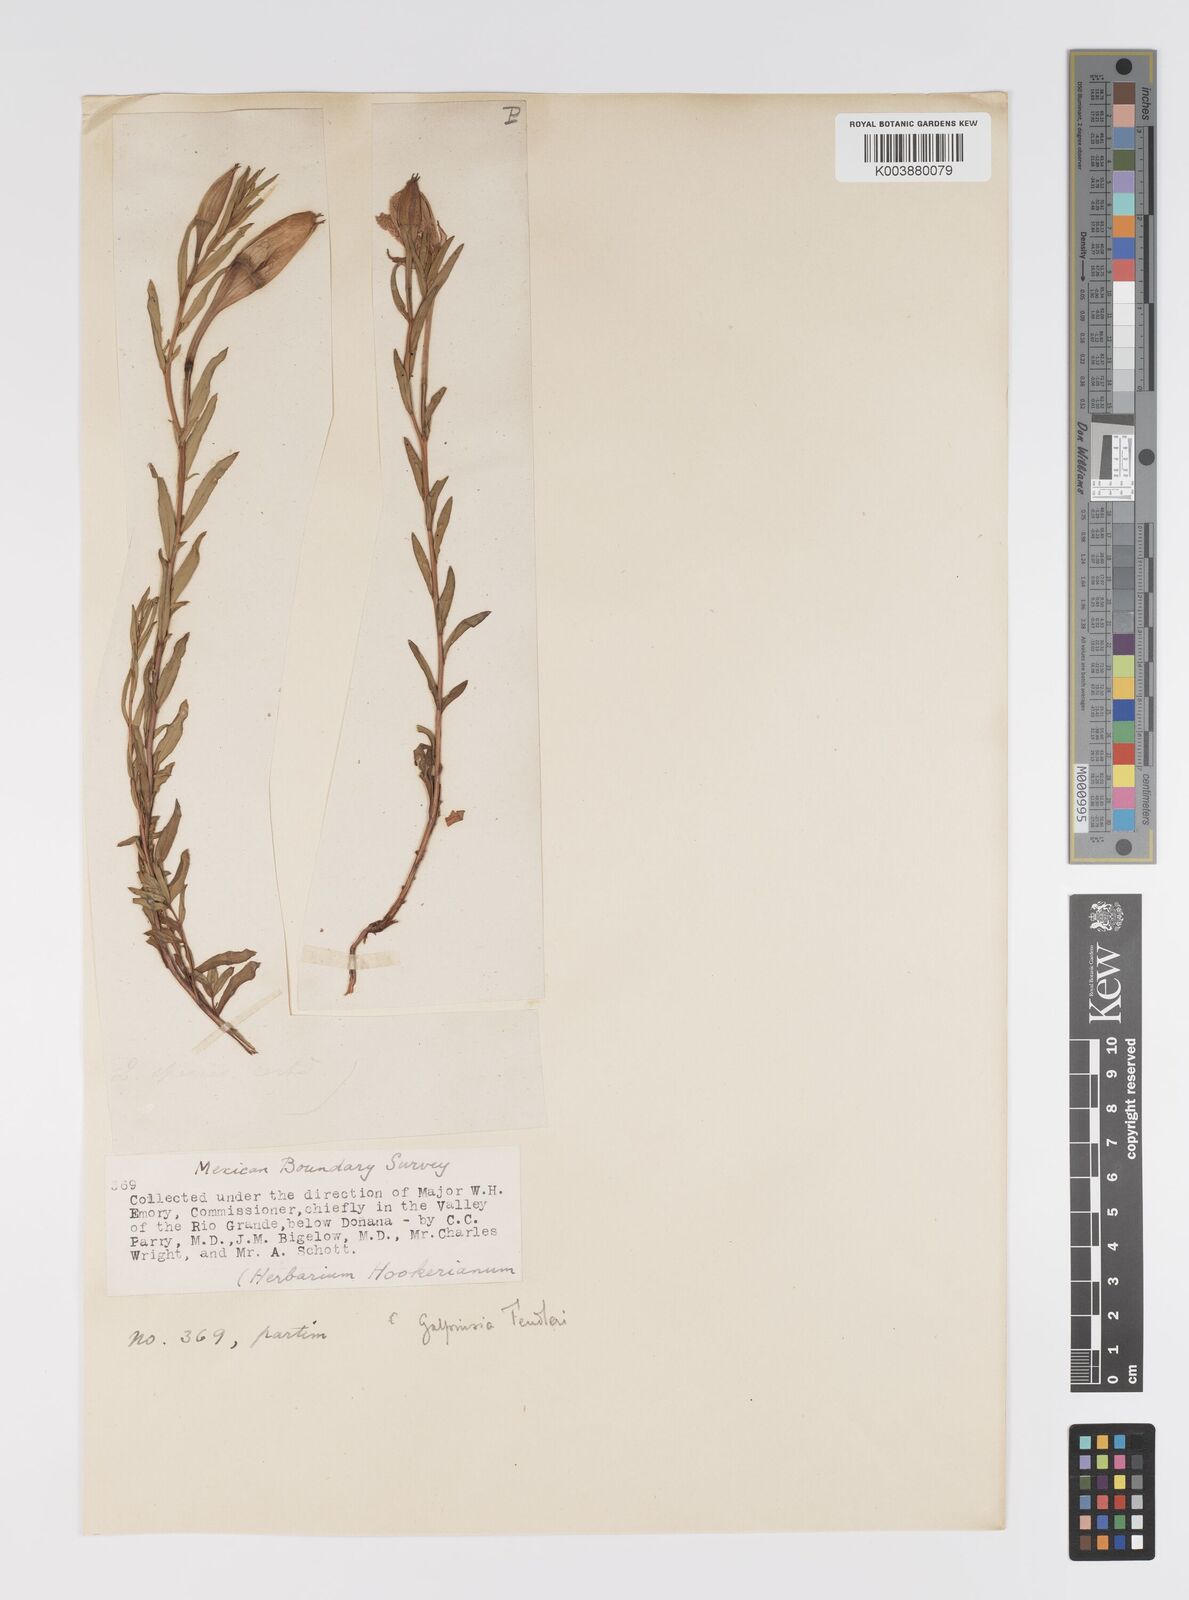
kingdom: Plantae
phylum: Tracheophyta
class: Magnoliopsida
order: Myrtales
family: Onagraceae
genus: Oenothera
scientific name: Oenothera hartwegii
